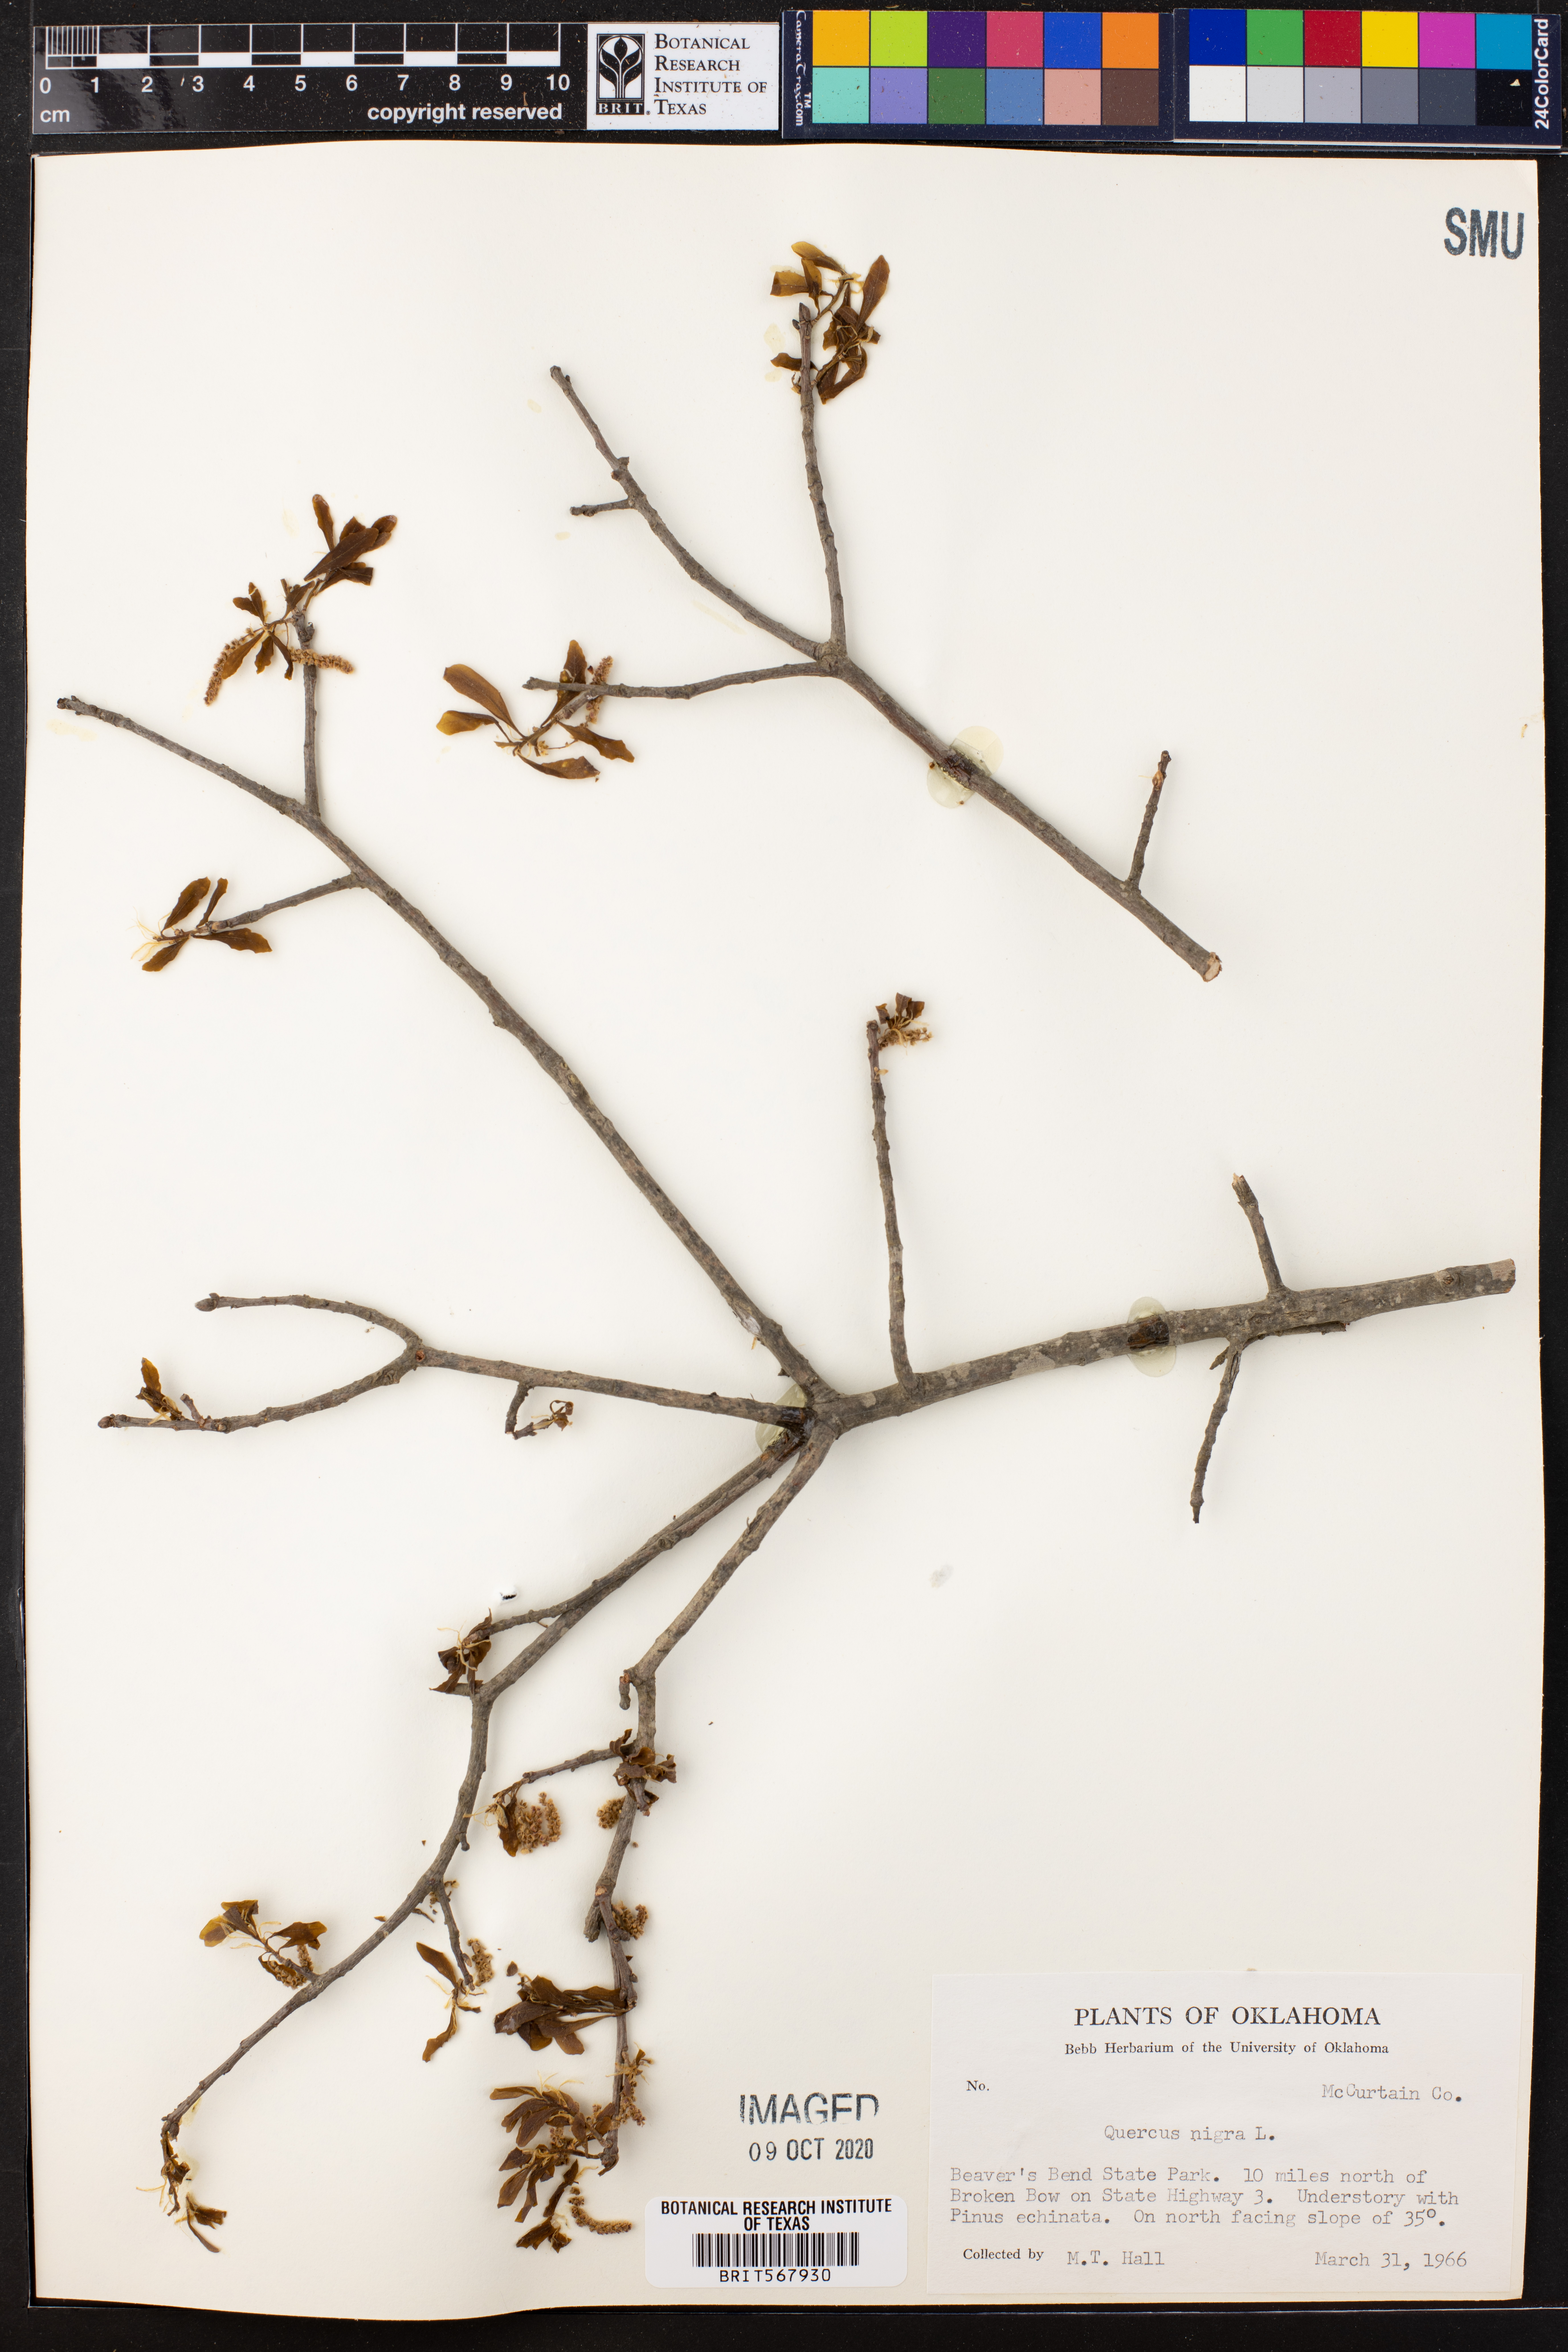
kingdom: Plantae
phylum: Tracheophyta
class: Magnoliopsida
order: Fagales
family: Fagaceae
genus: Quercus
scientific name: Quercus nigra
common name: Water oak
